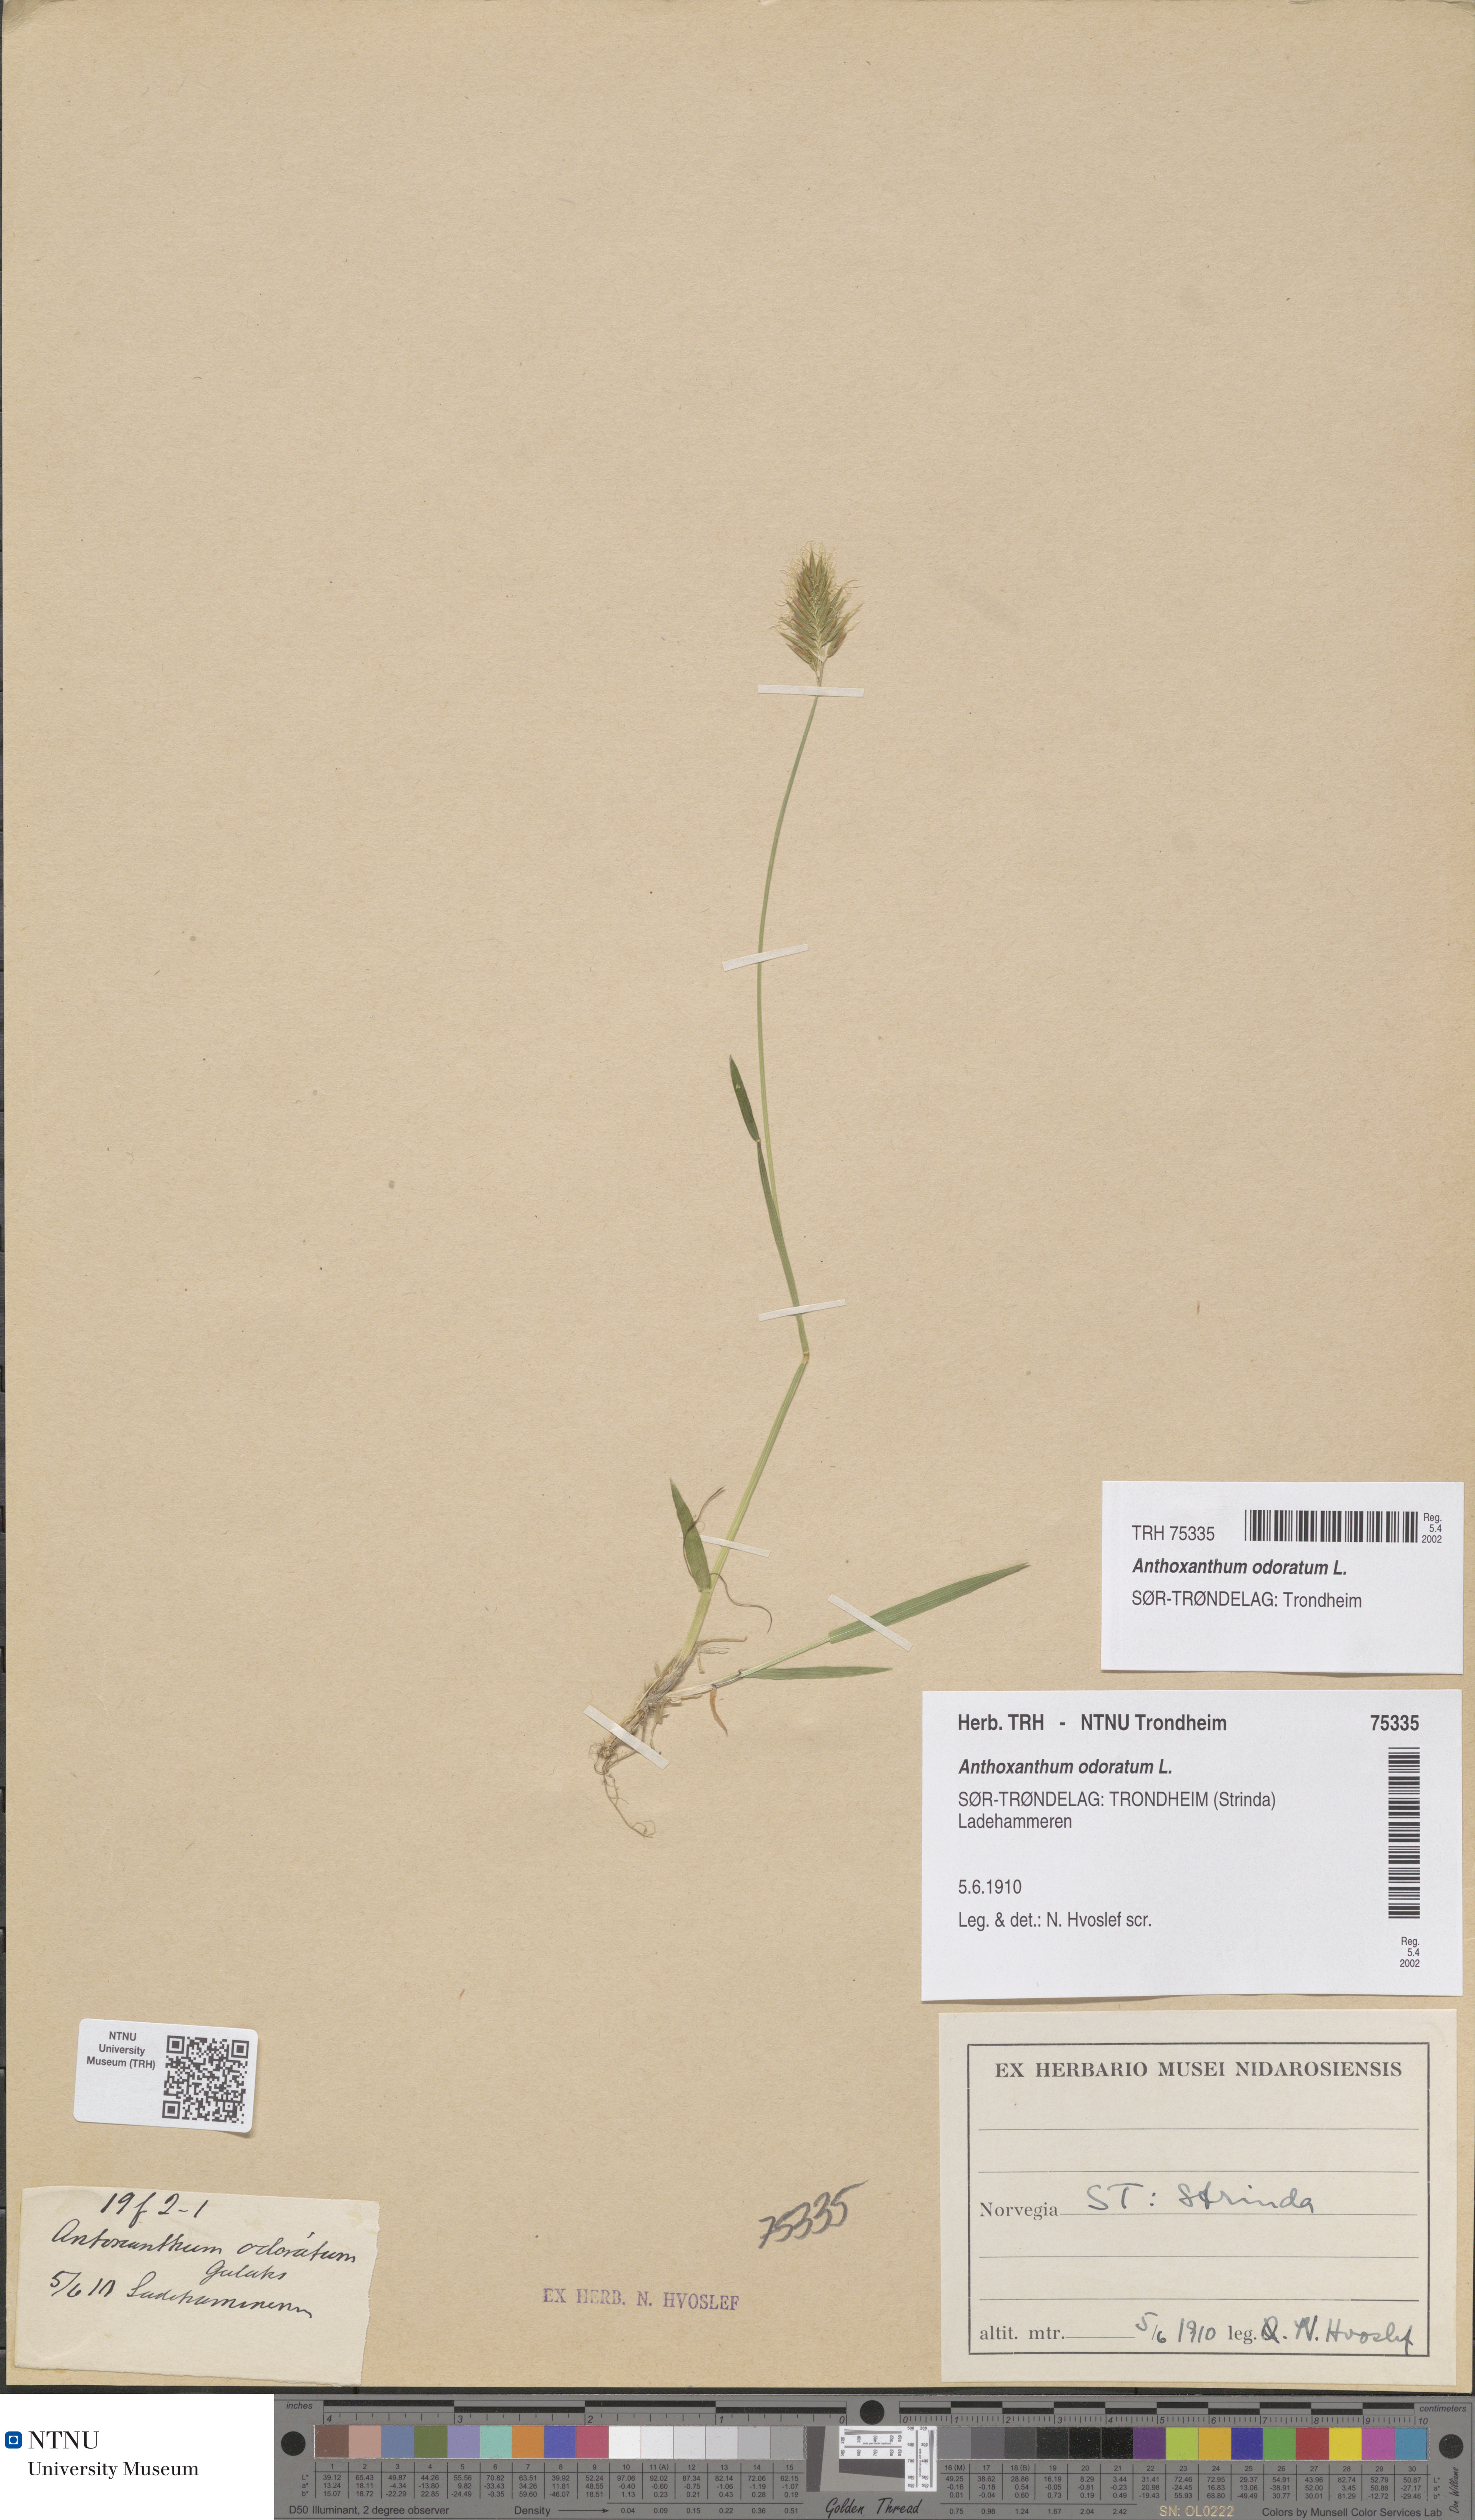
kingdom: Plantae
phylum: Tracheophyta
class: Liliopsida
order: Poales
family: Poaceae
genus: Anthoxanthum
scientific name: Anthoxanthum odoratum
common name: Sweet vernalgrass
